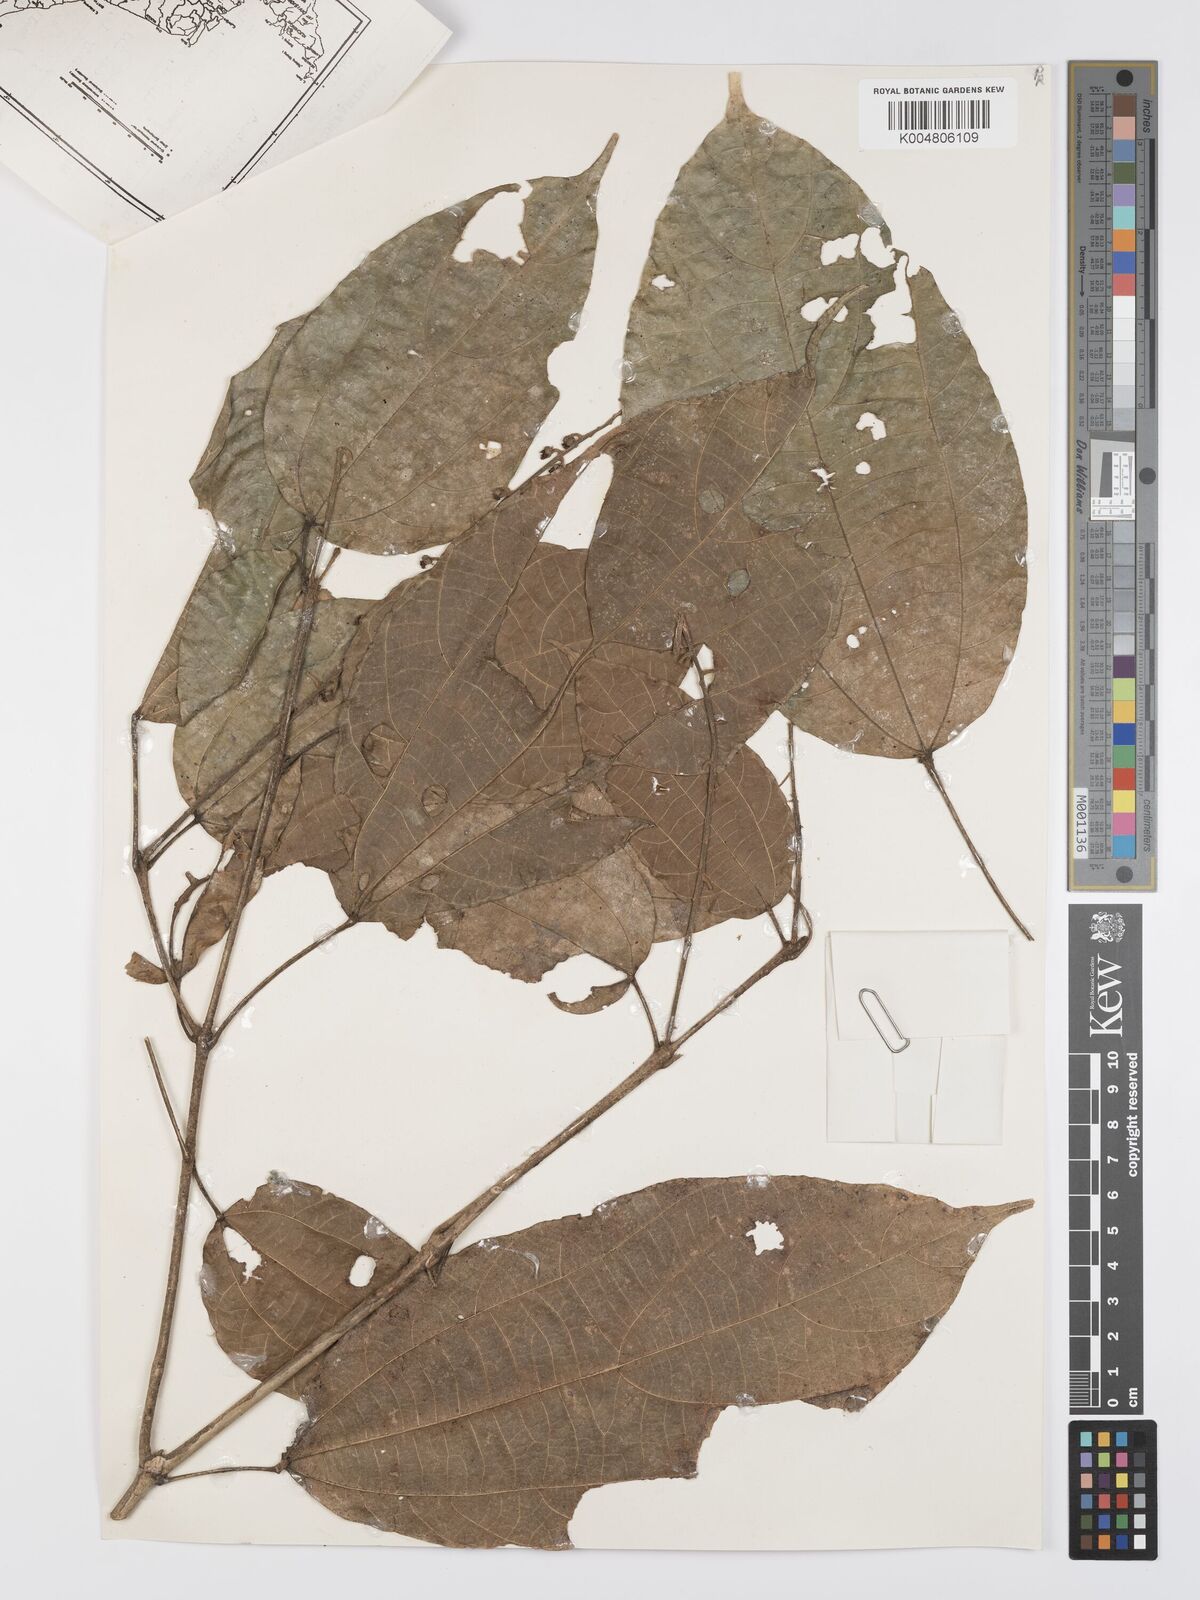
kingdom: Plantae
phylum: Tracheophyta
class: Magnoliopsida
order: Malpighiales
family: Euphorbiaceae
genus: Mallotus
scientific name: Mallotus korthalsii
